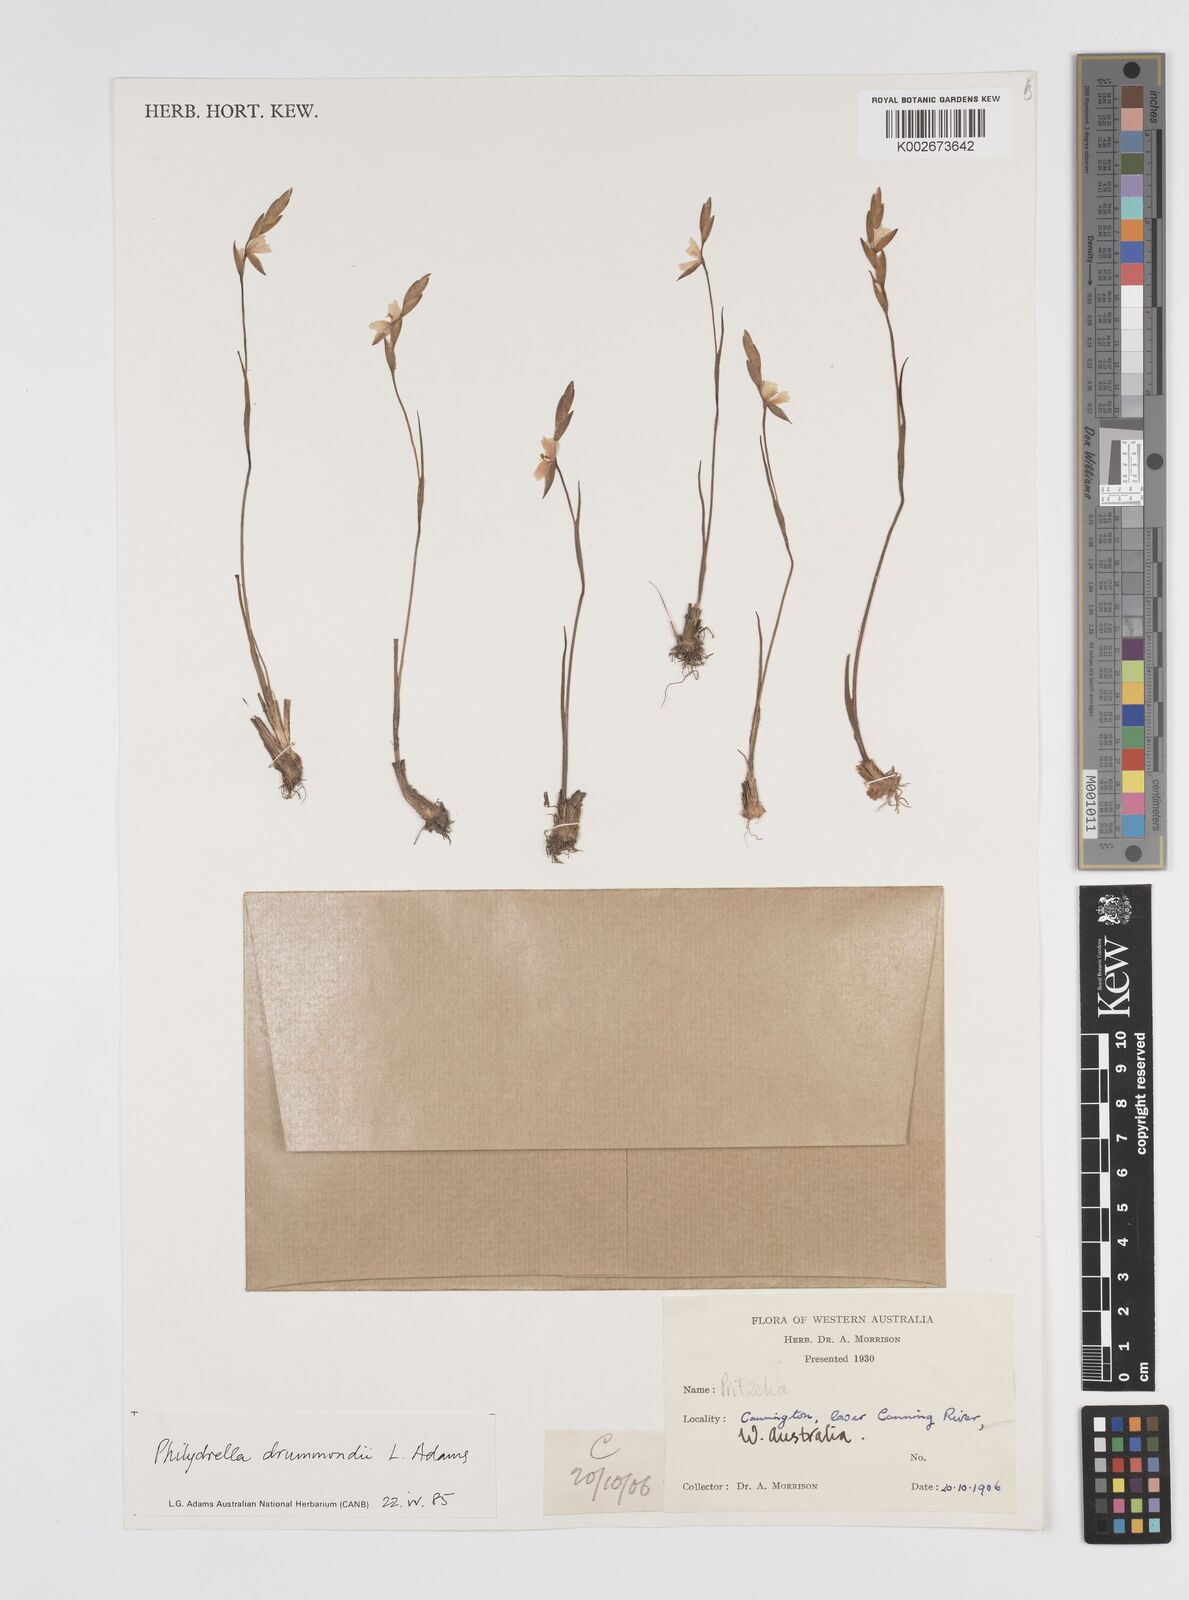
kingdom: Plantae
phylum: Tracheophyta
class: Liliopsida
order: Commelinales
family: Philydraceae
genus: Philydrella
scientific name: Philydrella drummondii
